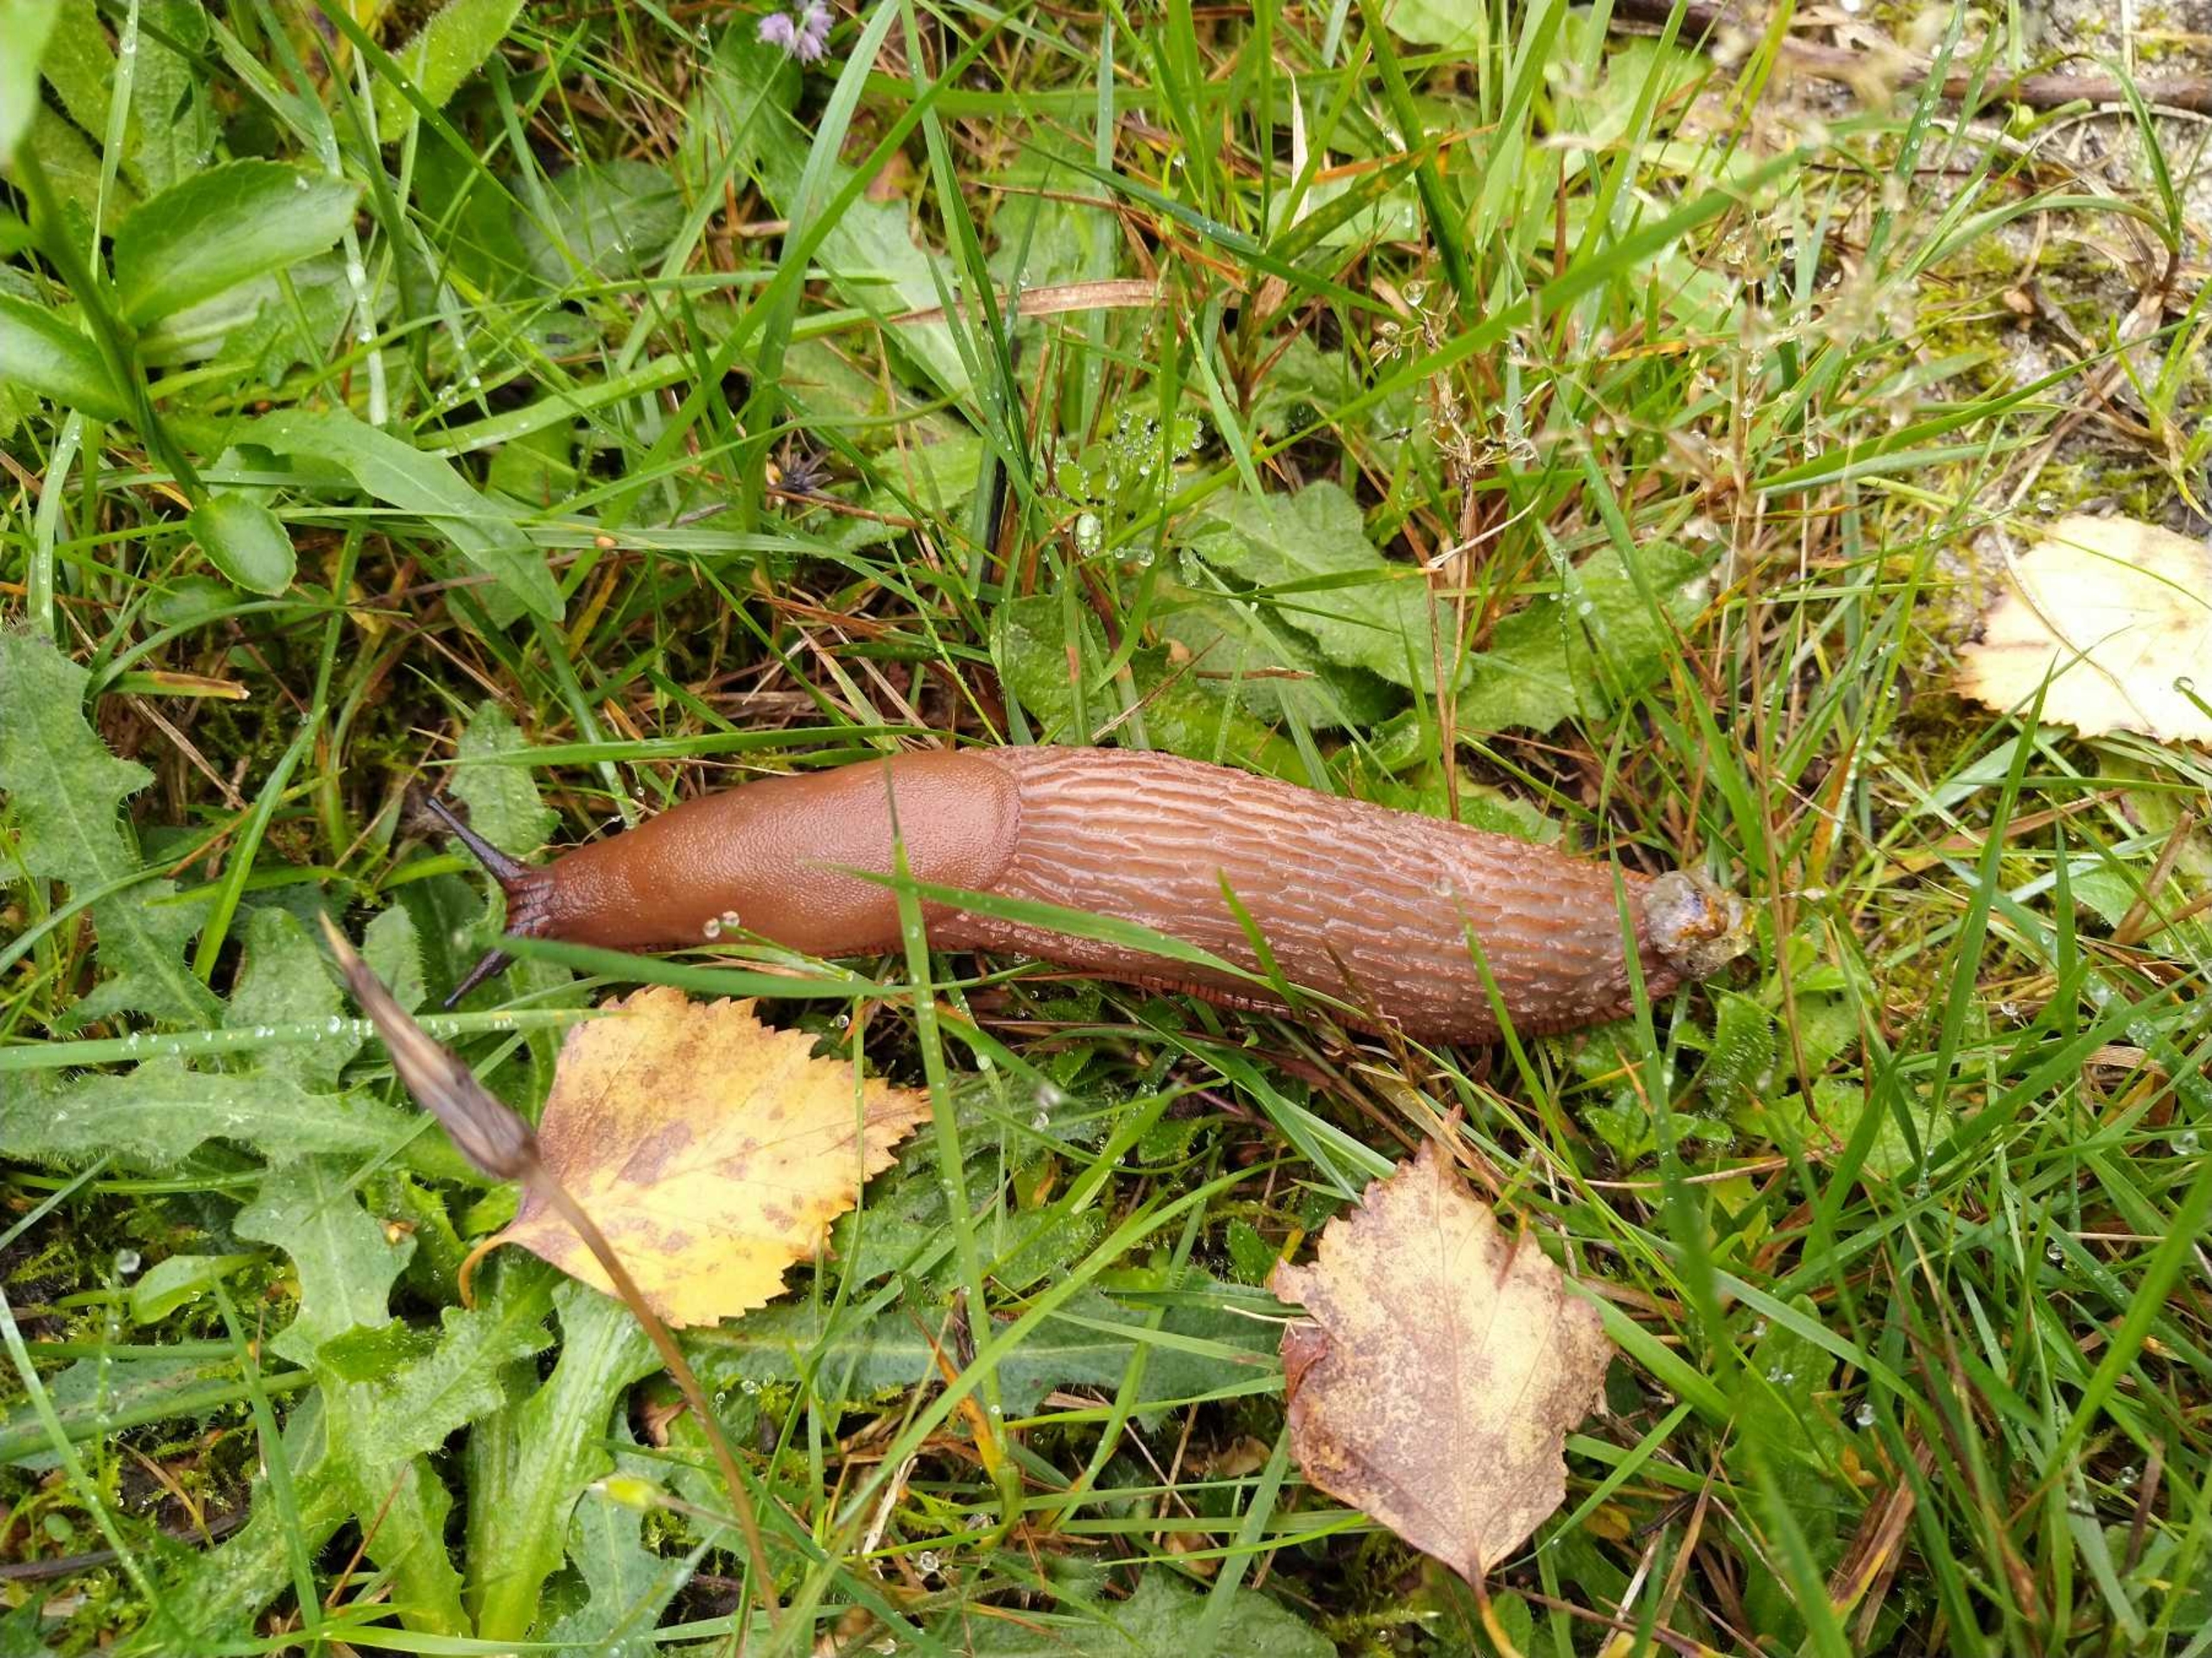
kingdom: Animalia
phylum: Mollusca
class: Gastropoda
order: Stylommatophora
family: Arionidae
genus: Arion
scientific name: Arion vulgaris
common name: Iberisk skovsnegl
